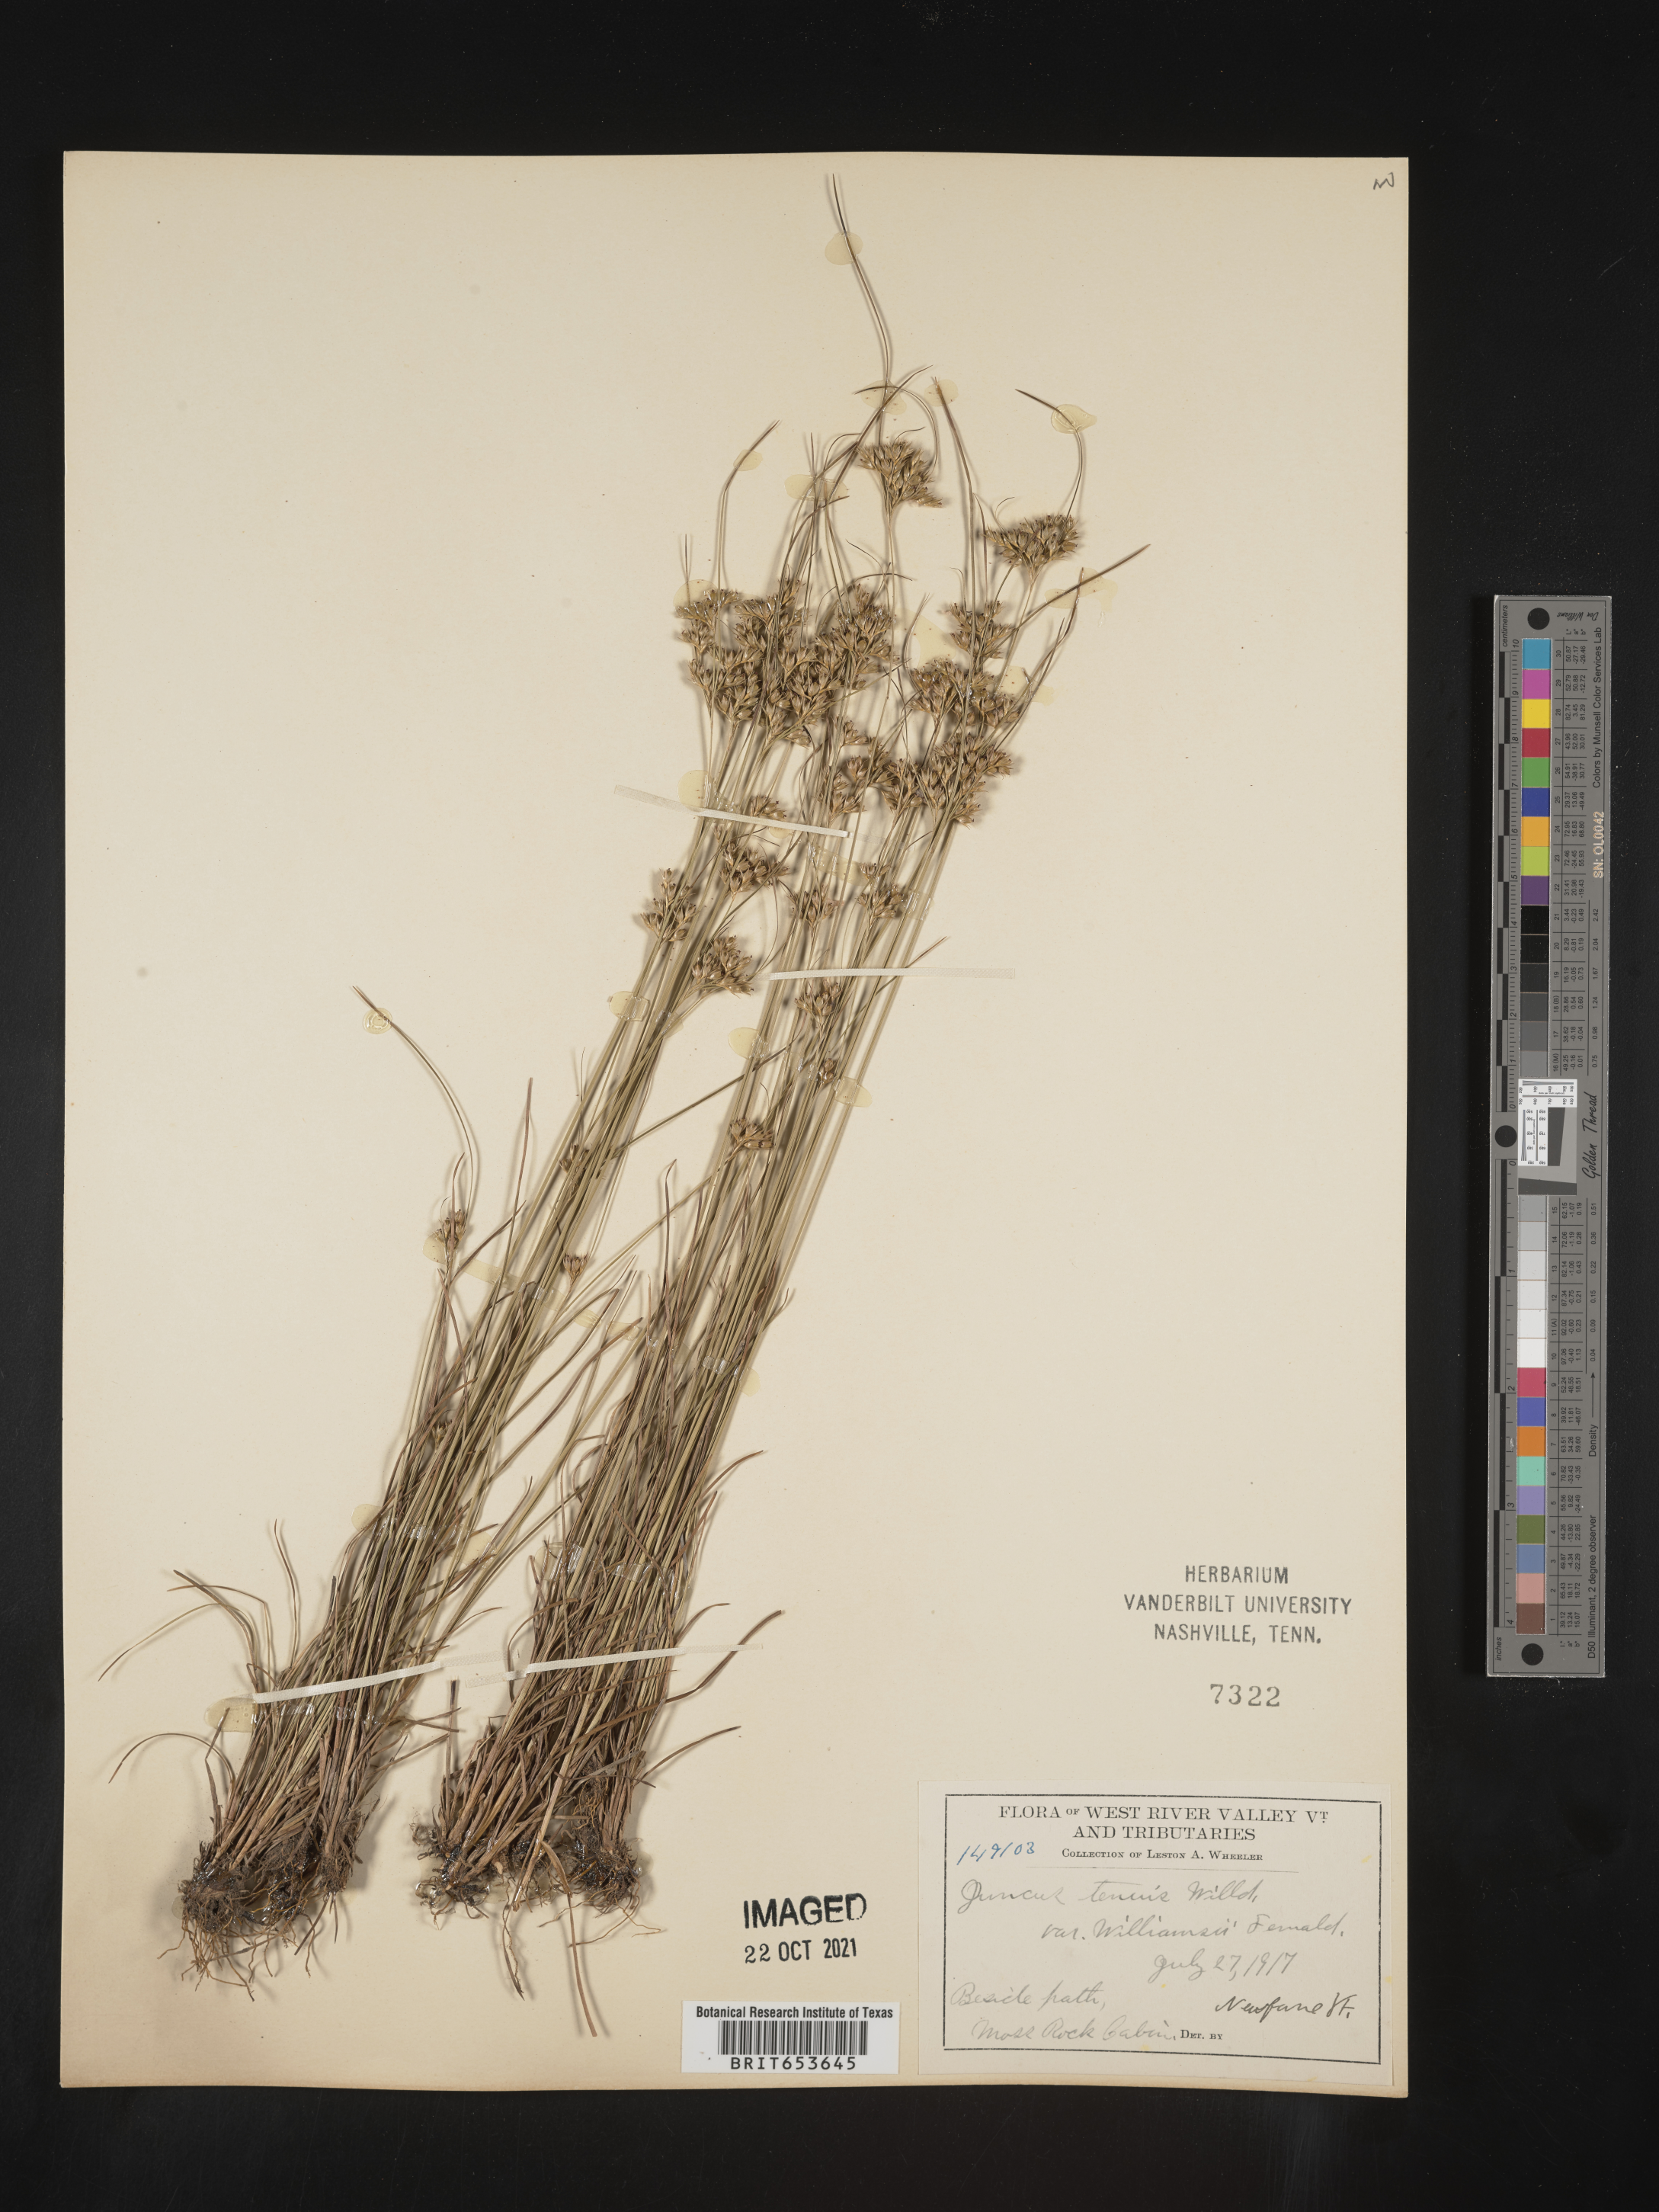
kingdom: Plantae
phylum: Tracheophyta
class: Liliopsida
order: Poales
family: Juncaceae
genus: Juncus
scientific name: Juncus tenuis
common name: Slender rush
